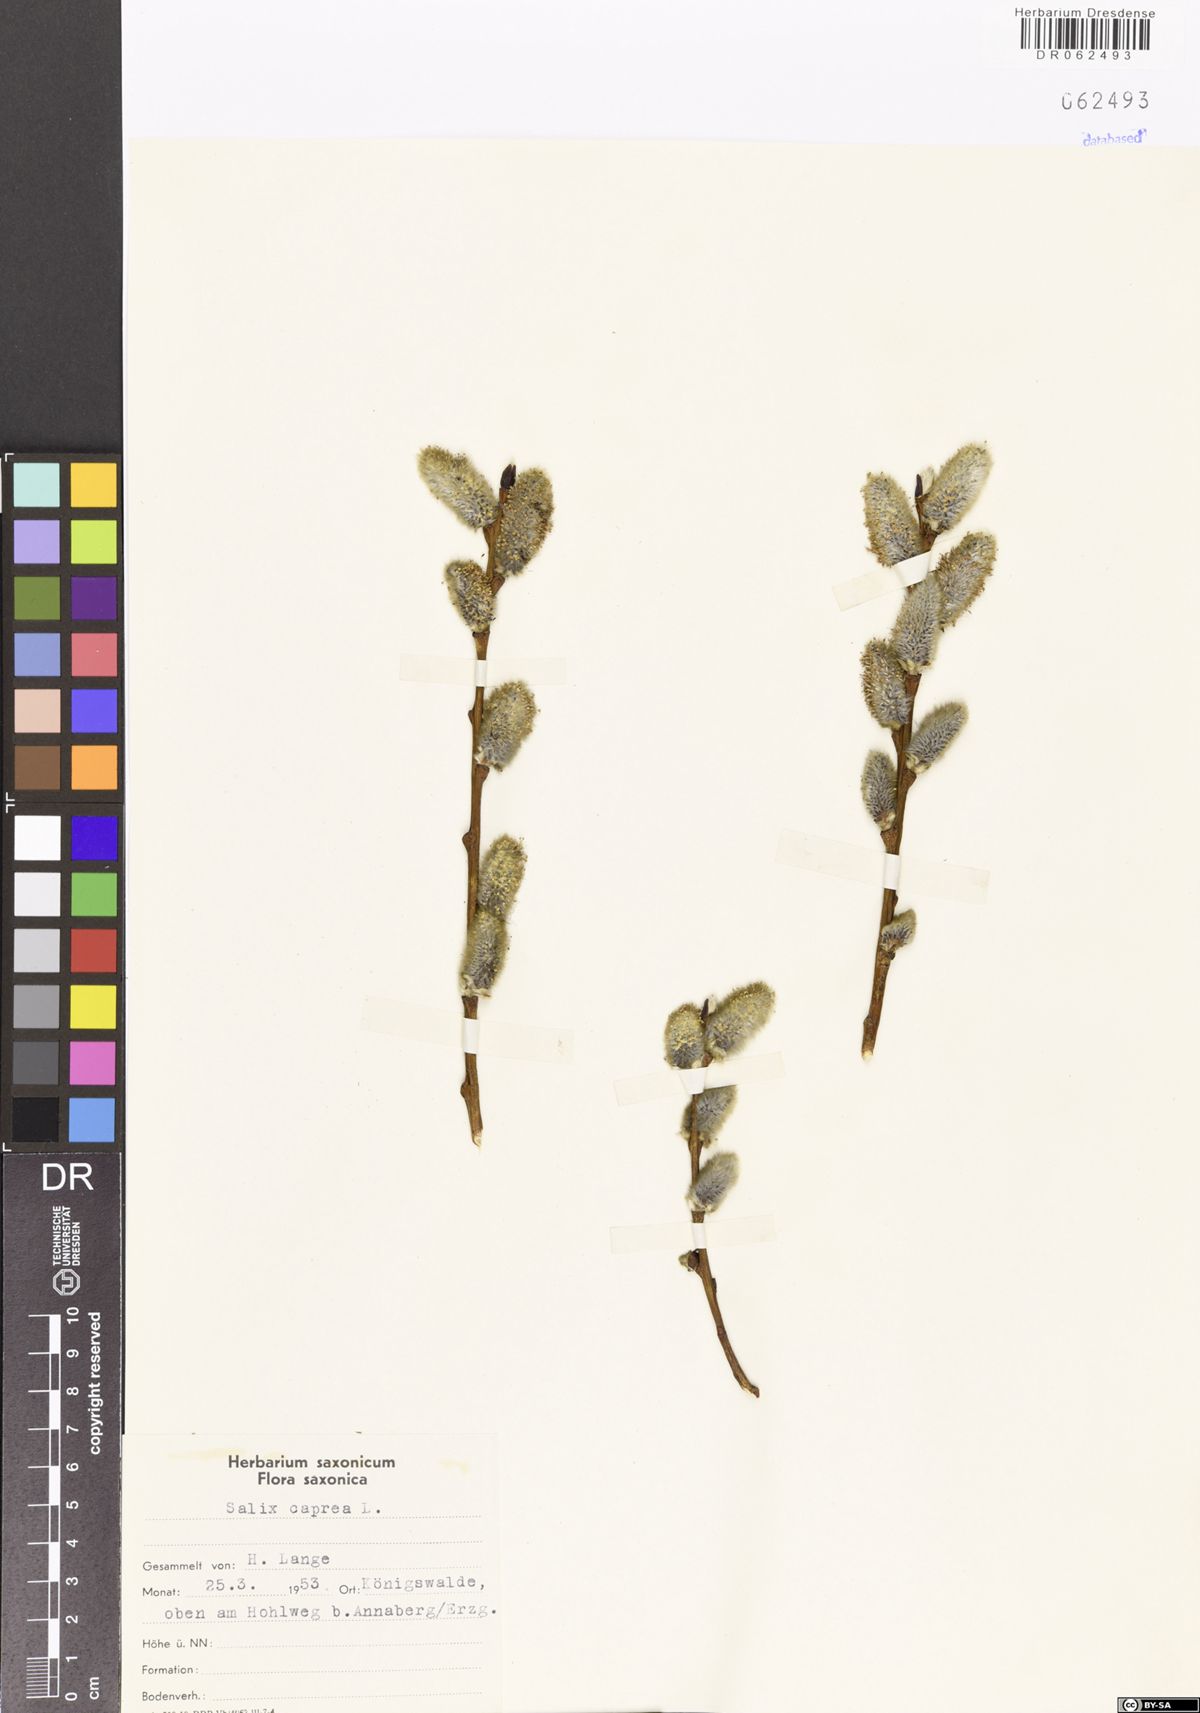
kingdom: Plantae
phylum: Tracheophyta
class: Magnoliopsida
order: Malpighiales
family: Salicaceae
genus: Salix
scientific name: Salix caprea
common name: Goat willow
